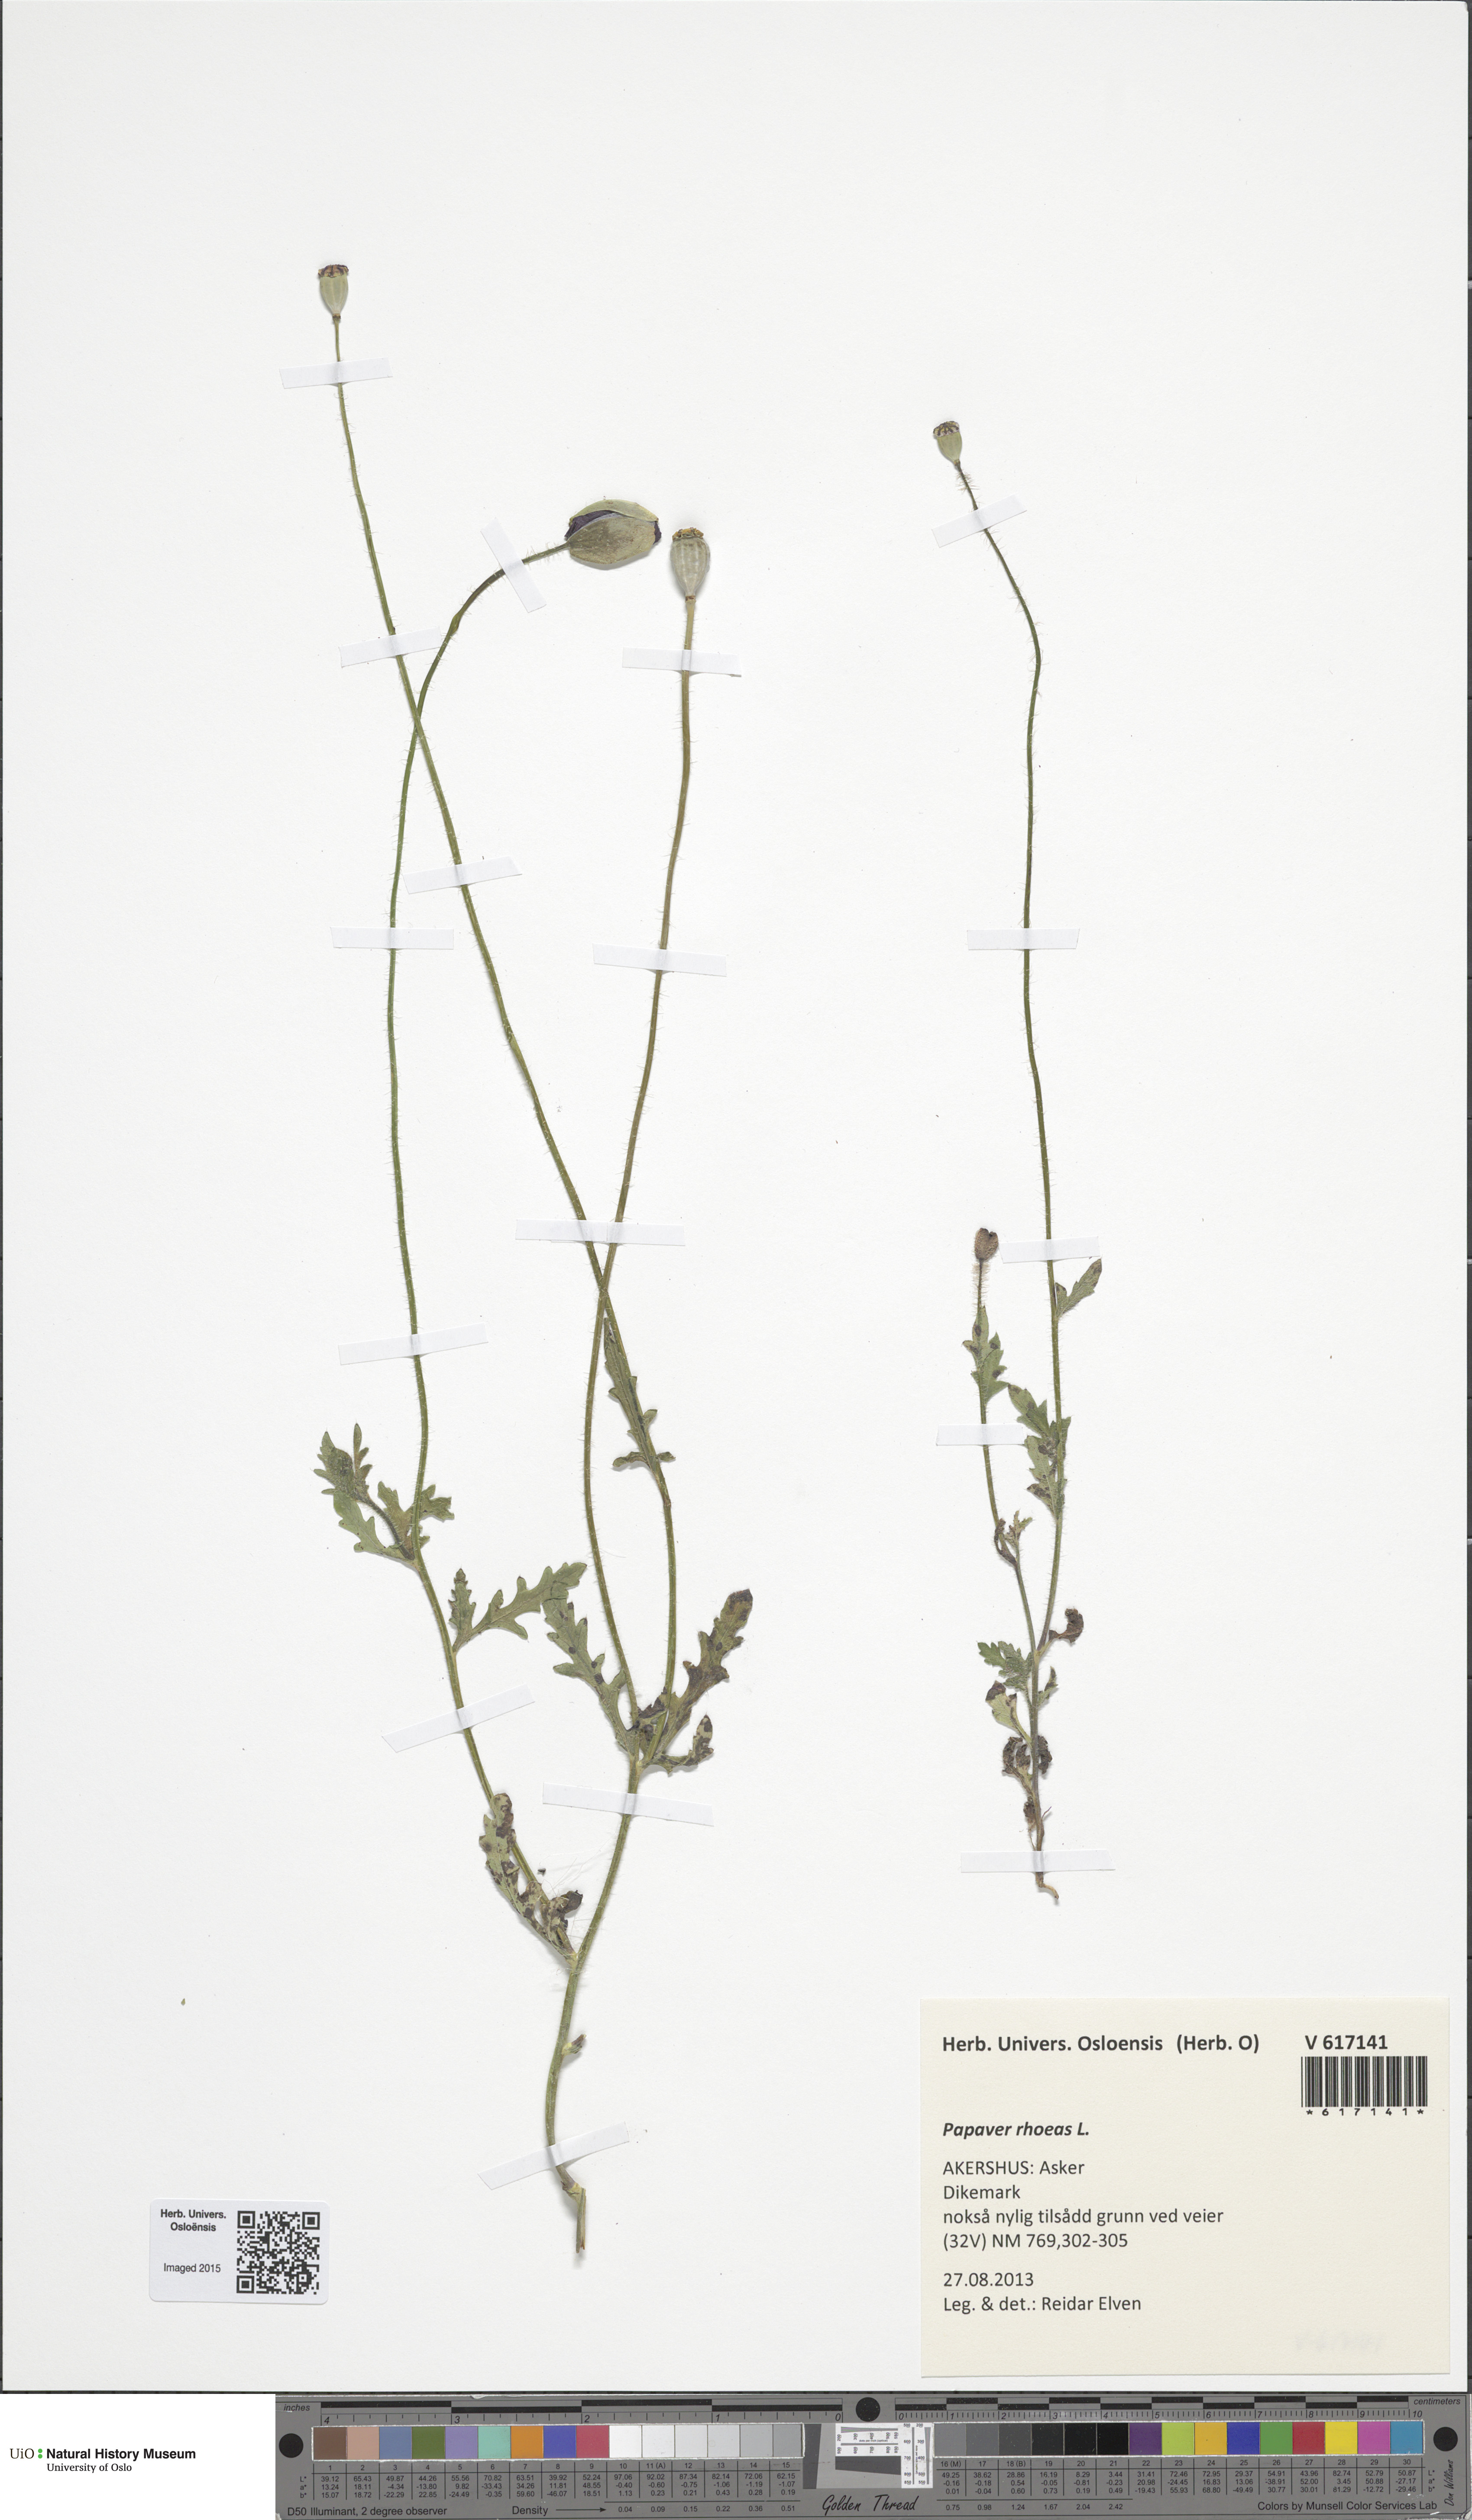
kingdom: Plantae
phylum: Tracheophyta
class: Magnoliopsida
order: Ranunculales
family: Papaveraceae
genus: Papaver
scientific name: Papaver rhoeas
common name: Corn poppy
